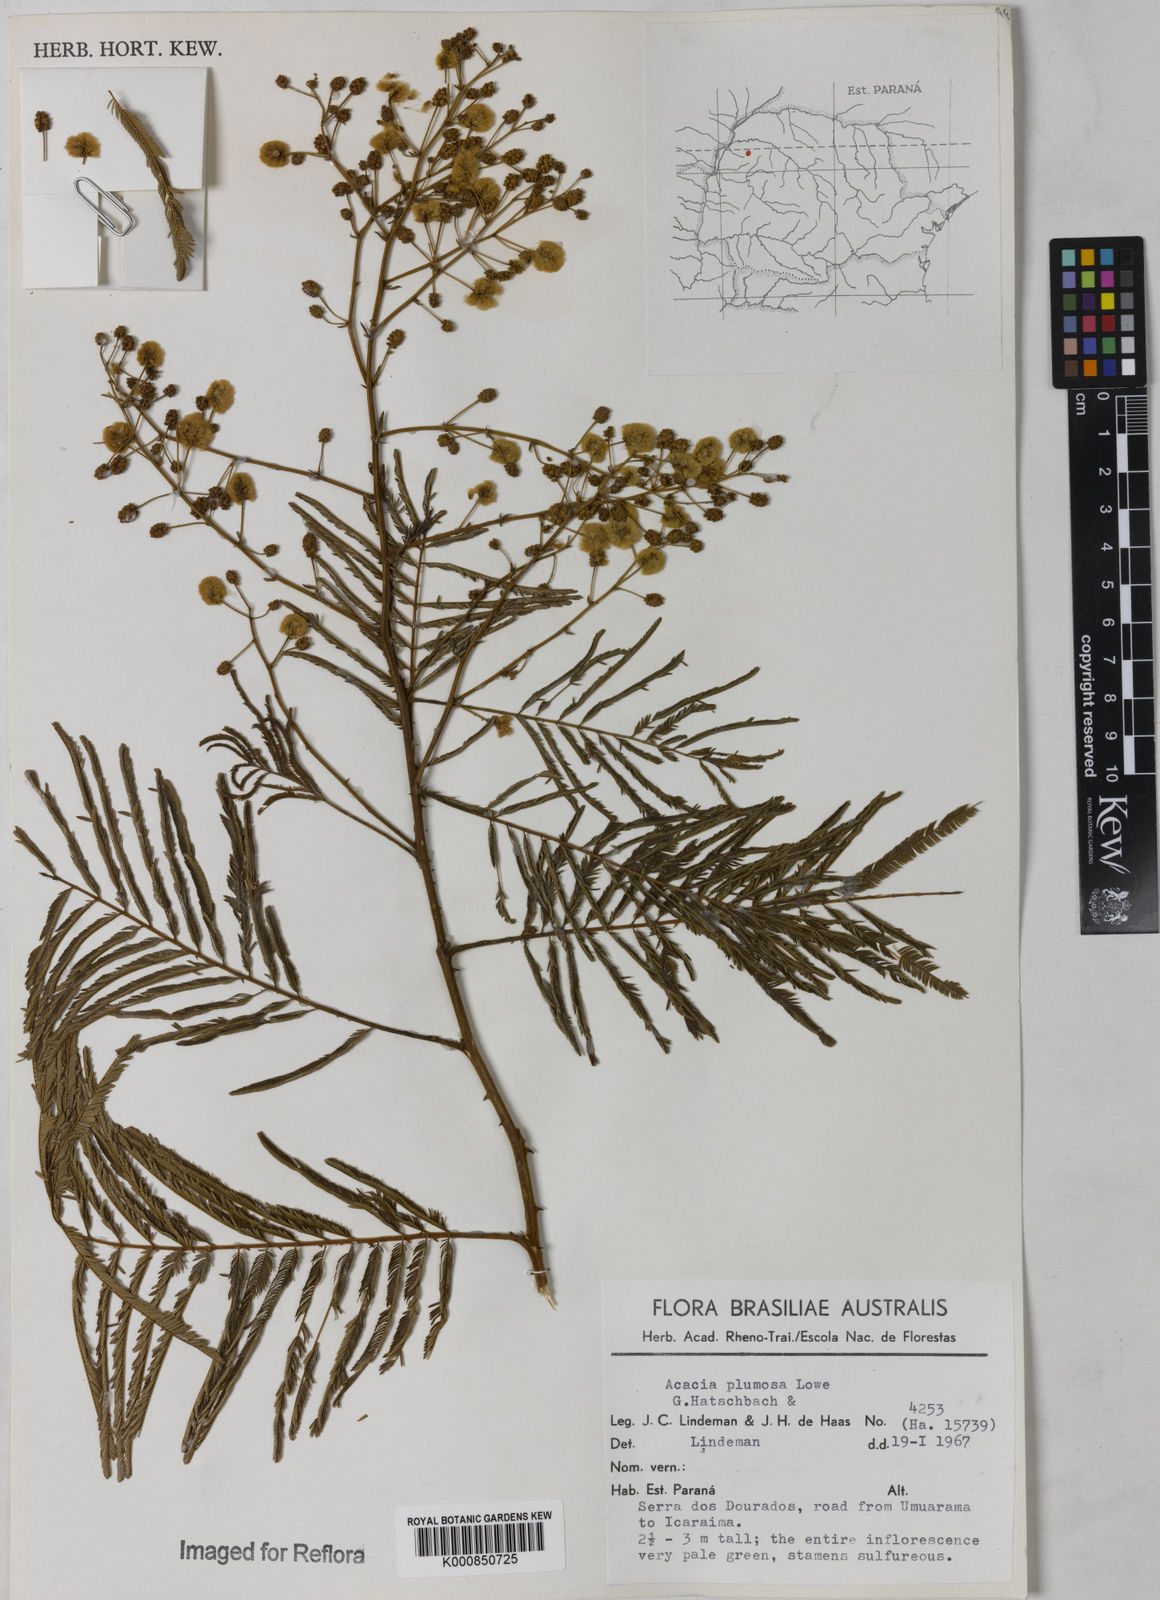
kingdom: Plantae
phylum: Tracheophyta
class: Magnoliopsida
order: Fabales
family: Fabaceae
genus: Senegalia
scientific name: Senegalia lowei
